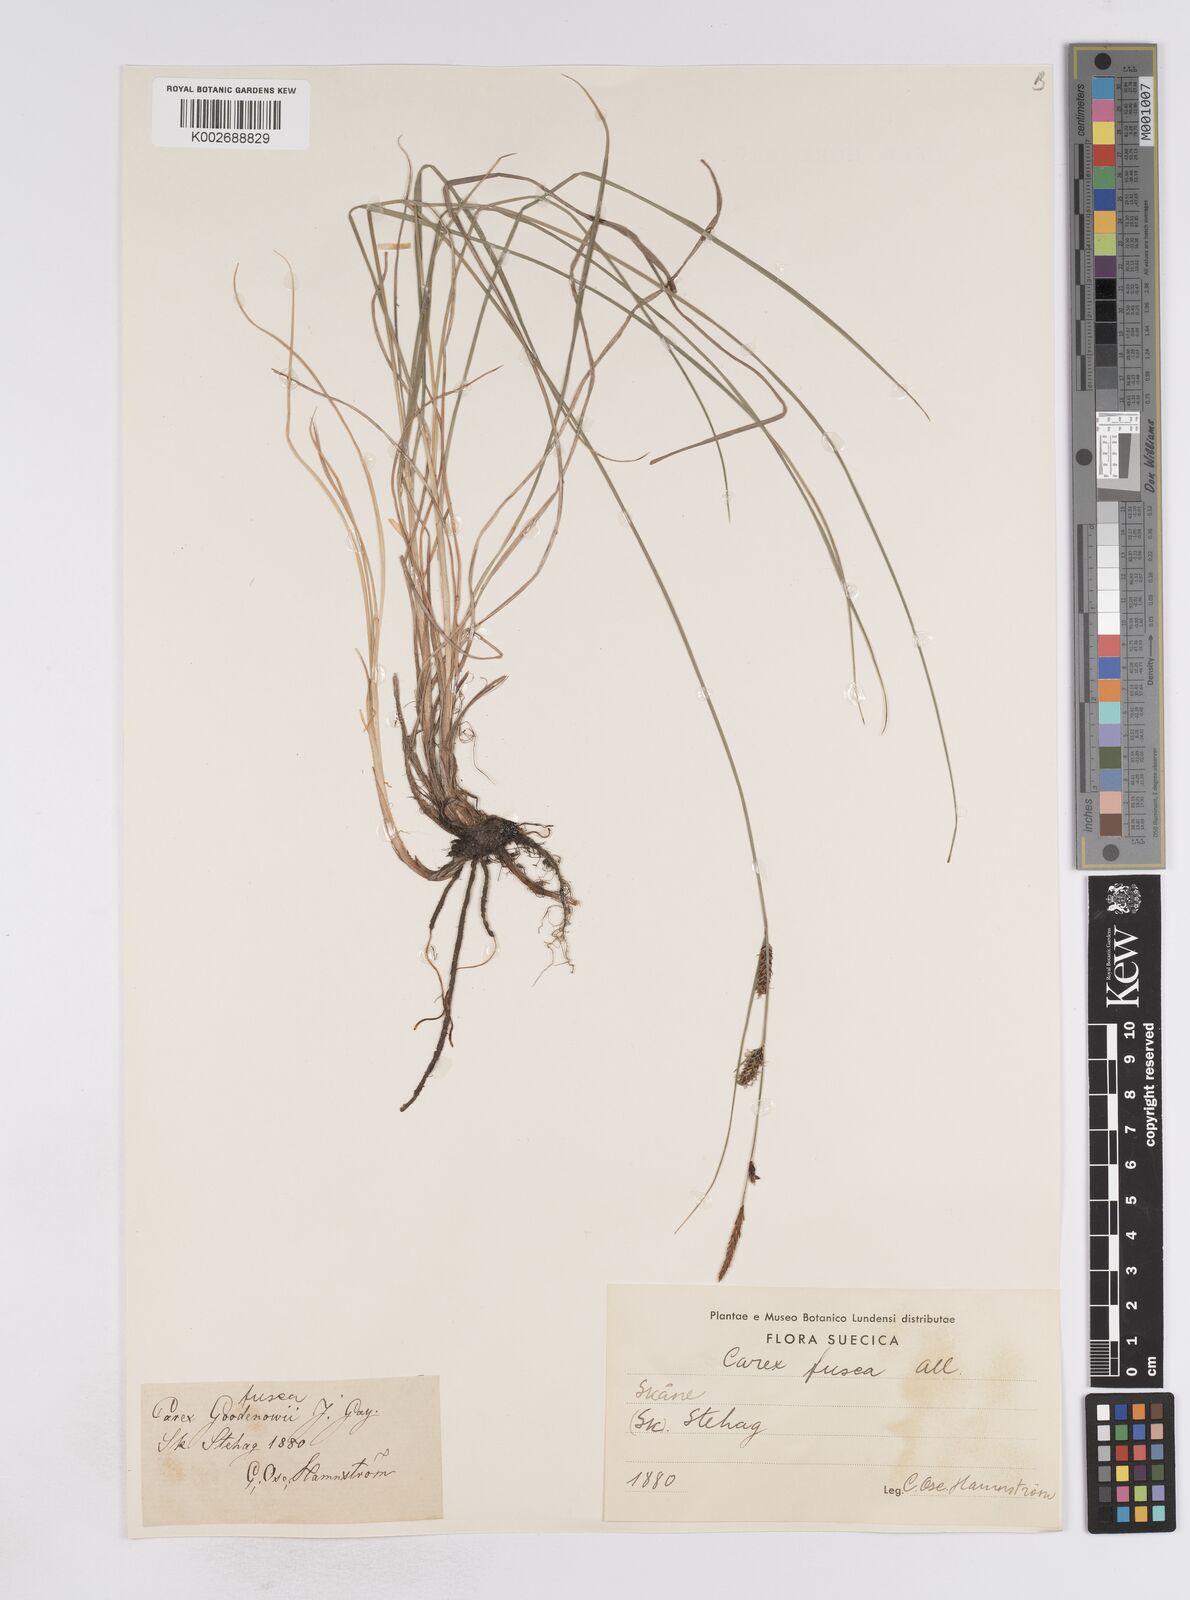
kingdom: Plantae
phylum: Tracheophyta
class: Liliopsida
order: Poales
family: Cyperaceae
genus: Carex
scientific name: Carex buxbaumii
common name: Club sedge
